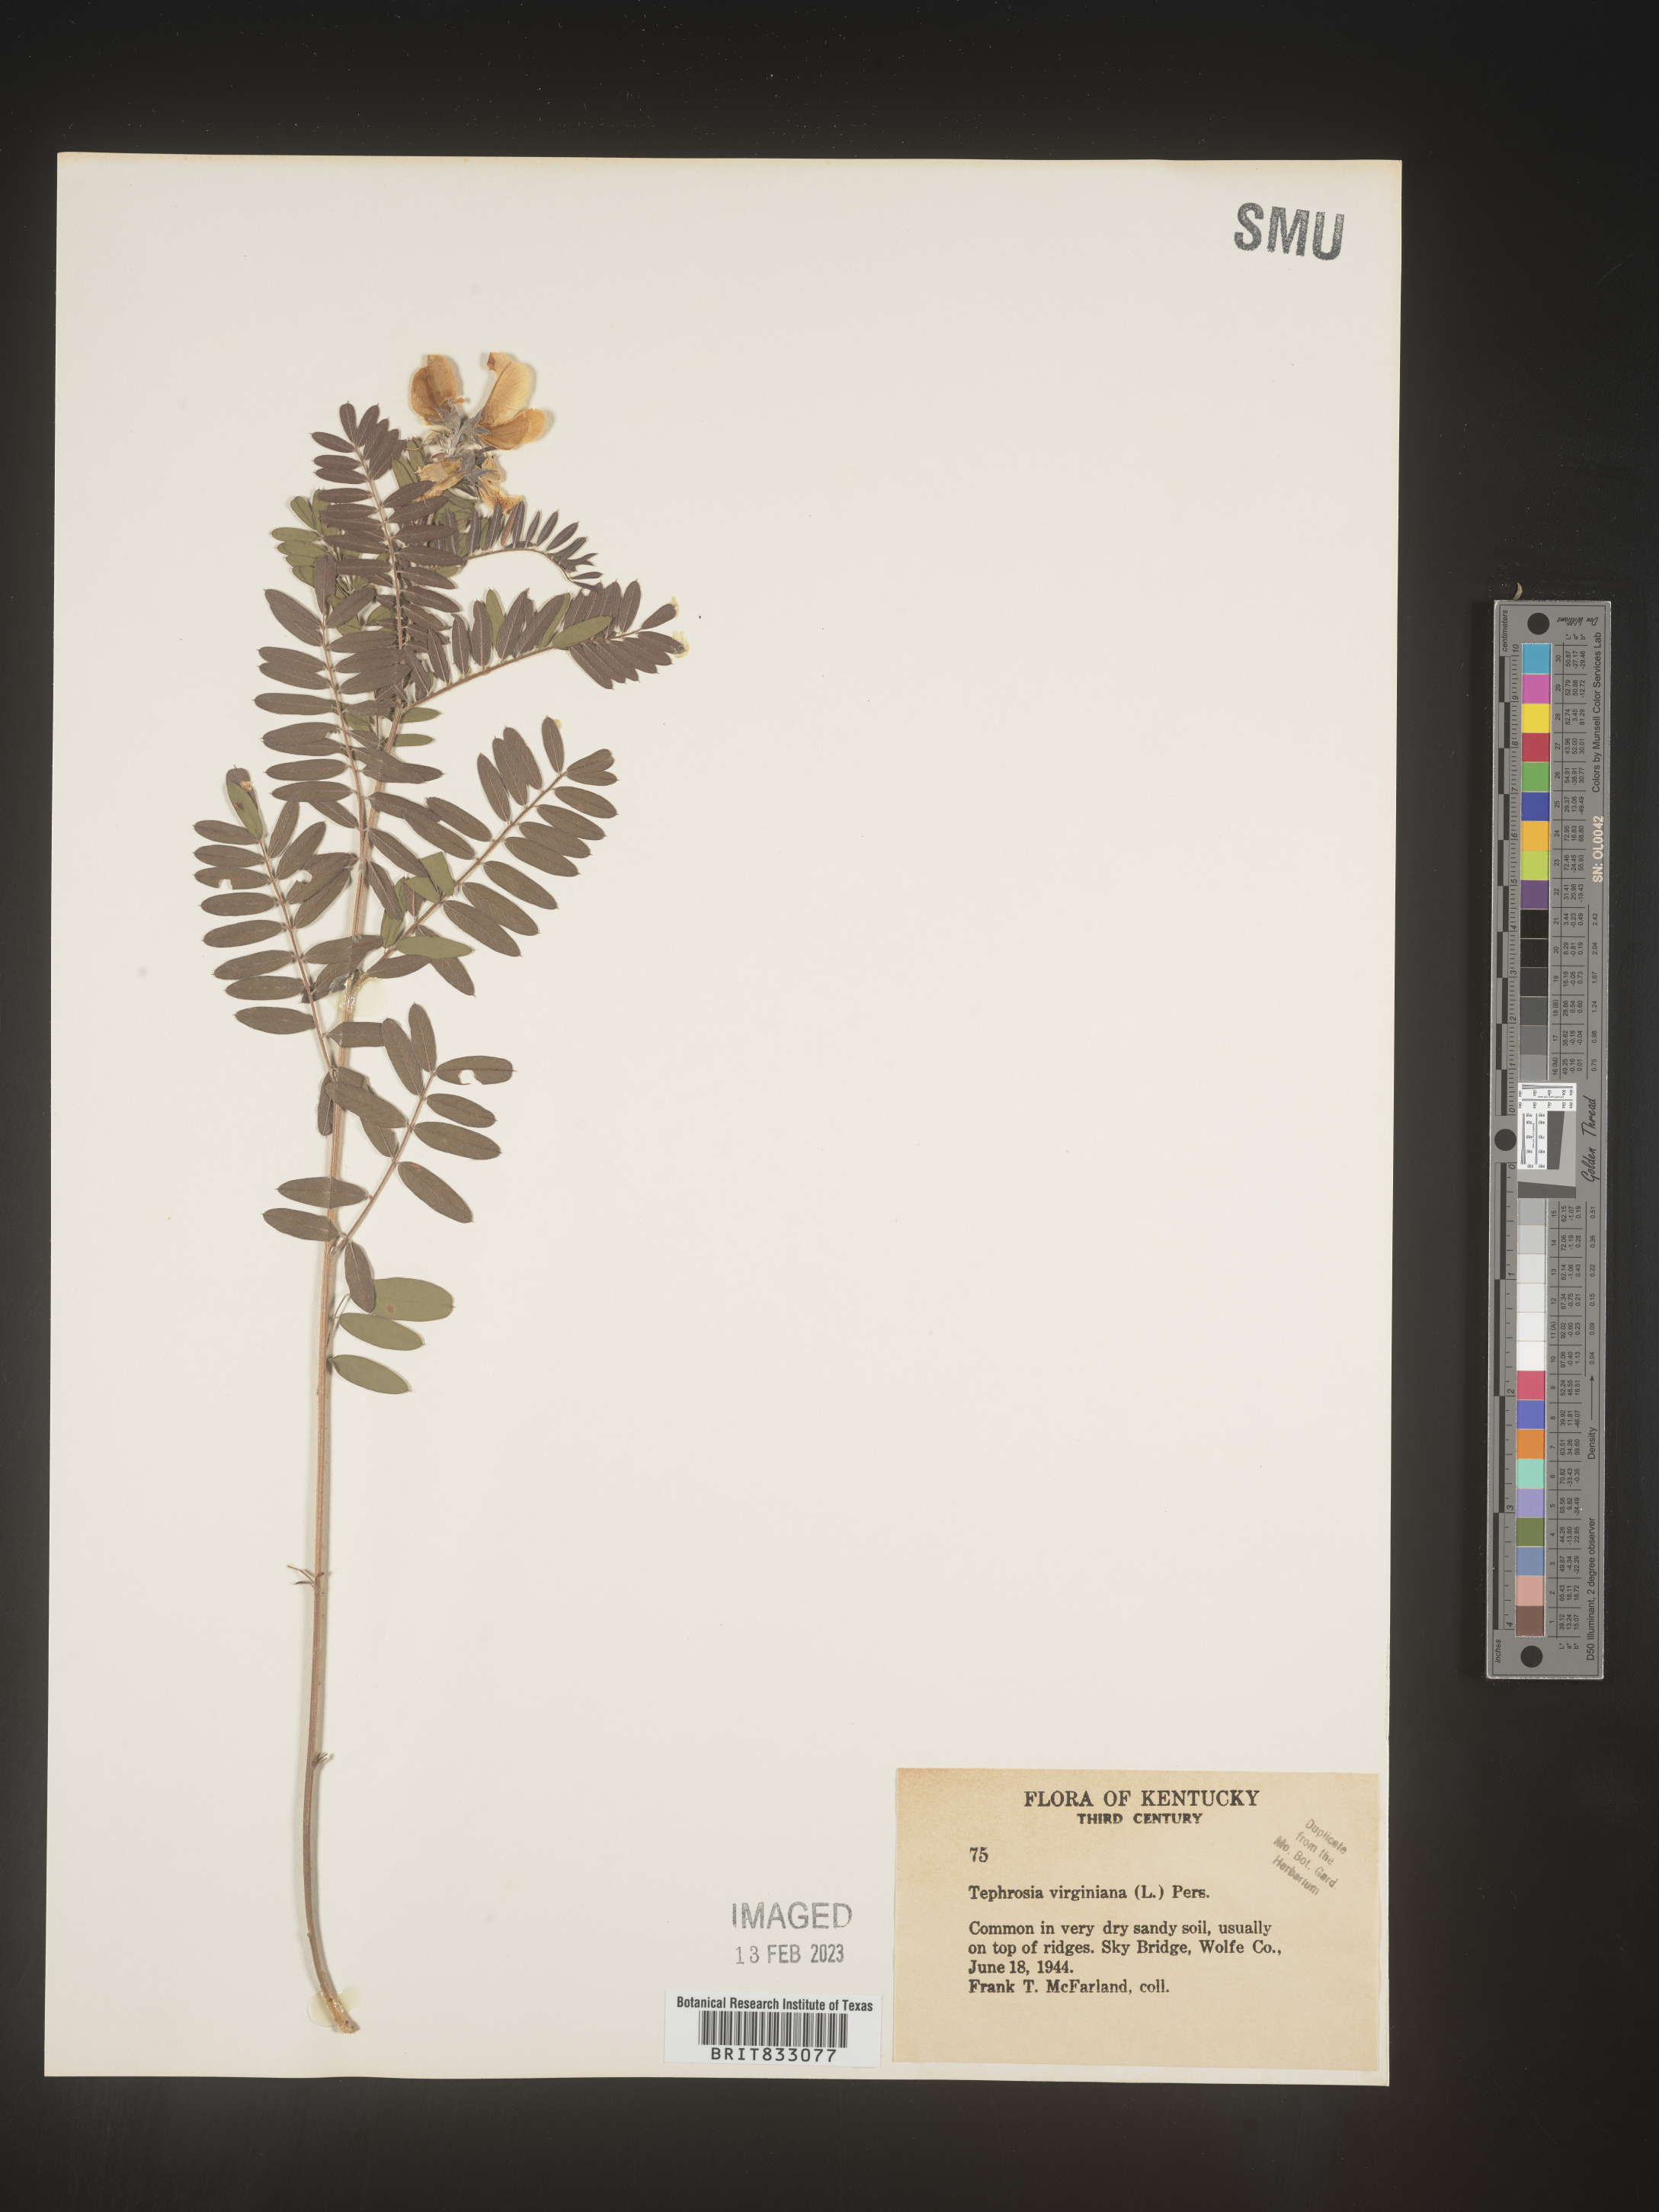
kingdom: Plantae
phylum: Tracheophyta
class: Magnoliopsida
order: Fabales
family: Fabaceae
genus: Tephrosia
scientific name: Tephrosia virginiana
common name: Rabbit-pea
